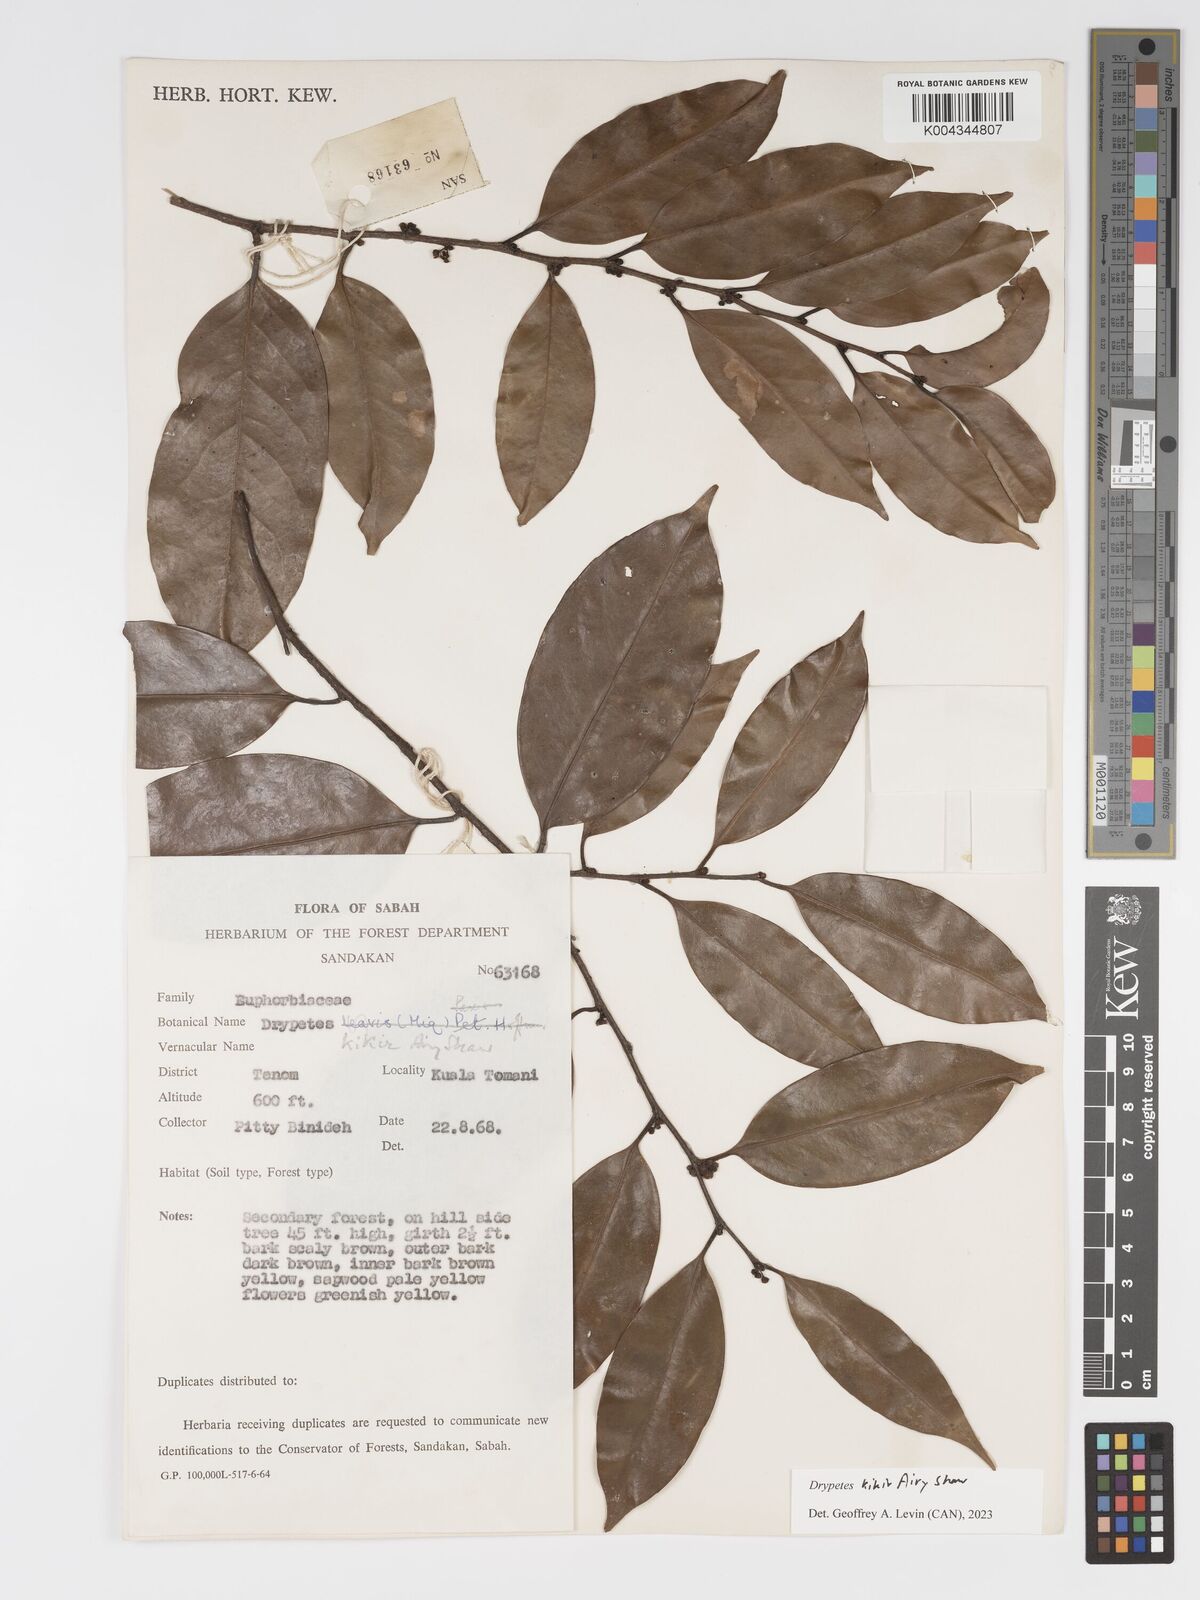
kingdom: Plantae
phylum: Tracheophyta
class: Magnoliopsida
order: Malpighiales
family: Putranjivaceae
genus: Drypetes
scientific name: Drypetes kikir
